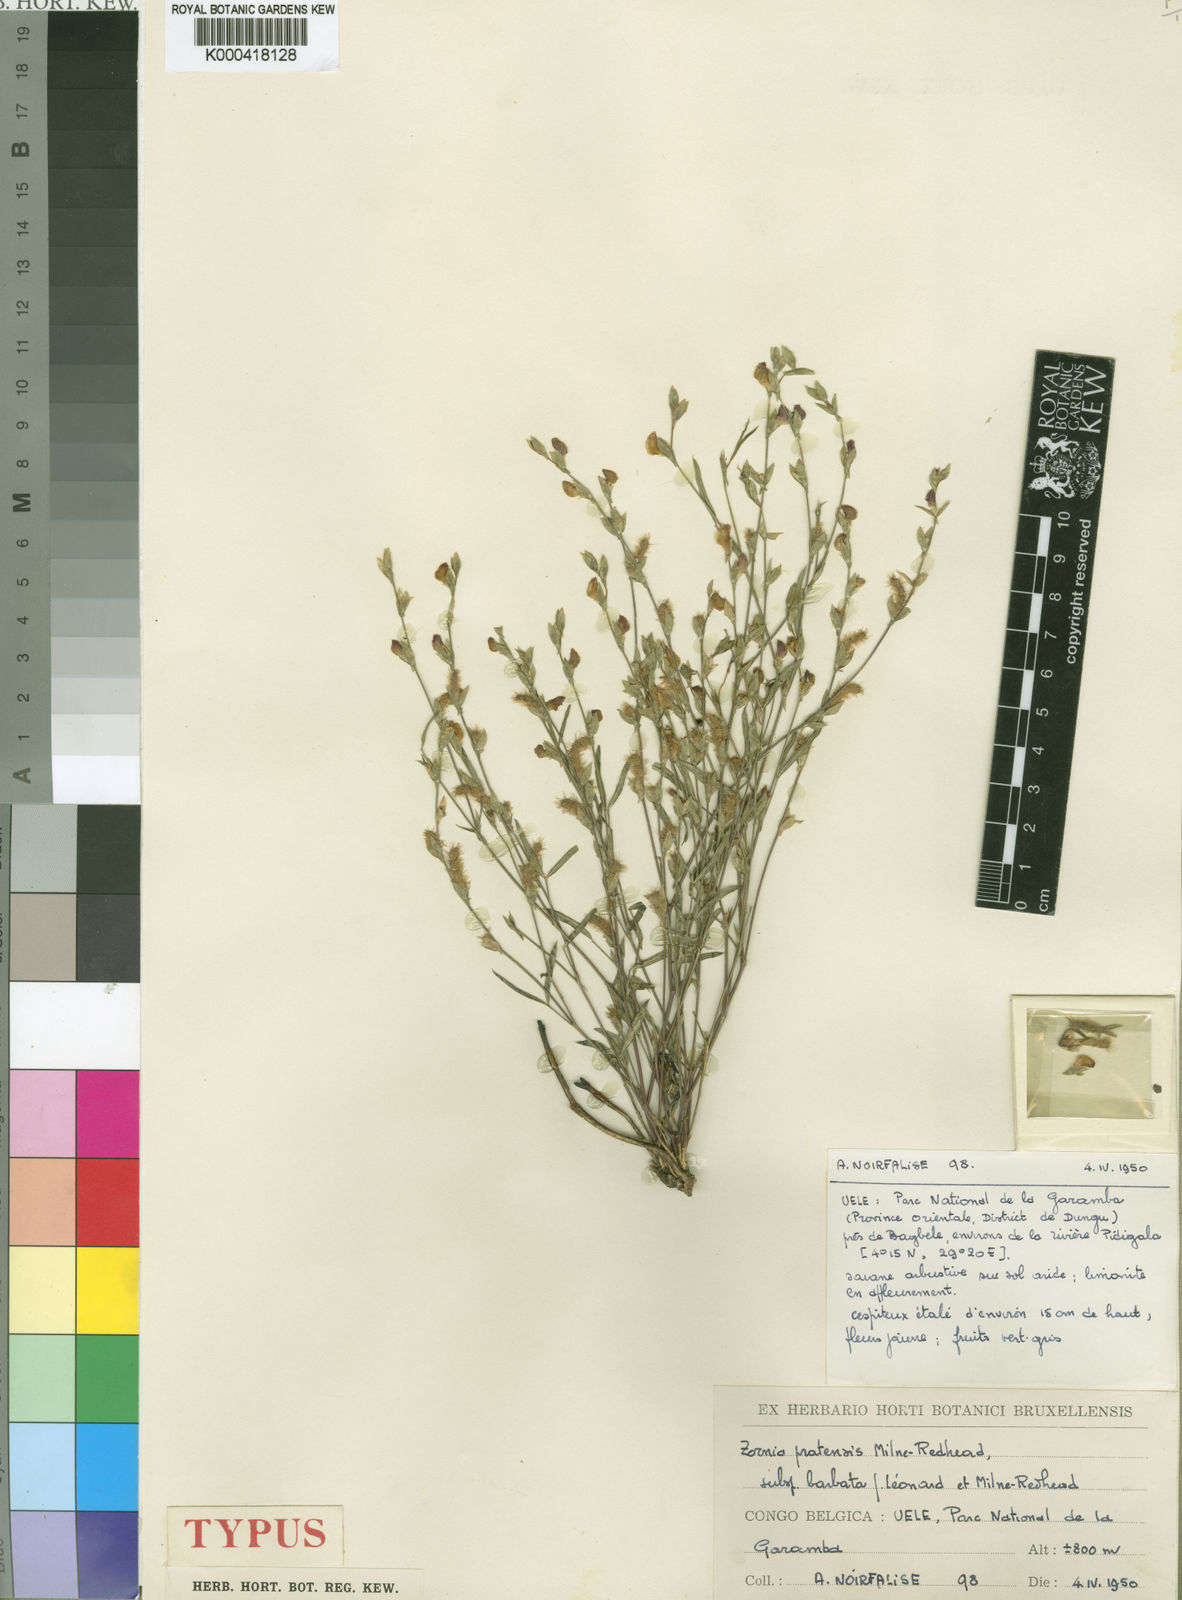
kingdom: Plantae
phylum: Tracheophyta
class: Magnoliopsida
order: Fabales
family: Fabaceae
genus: Zornia
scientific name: Zornia pratensis
